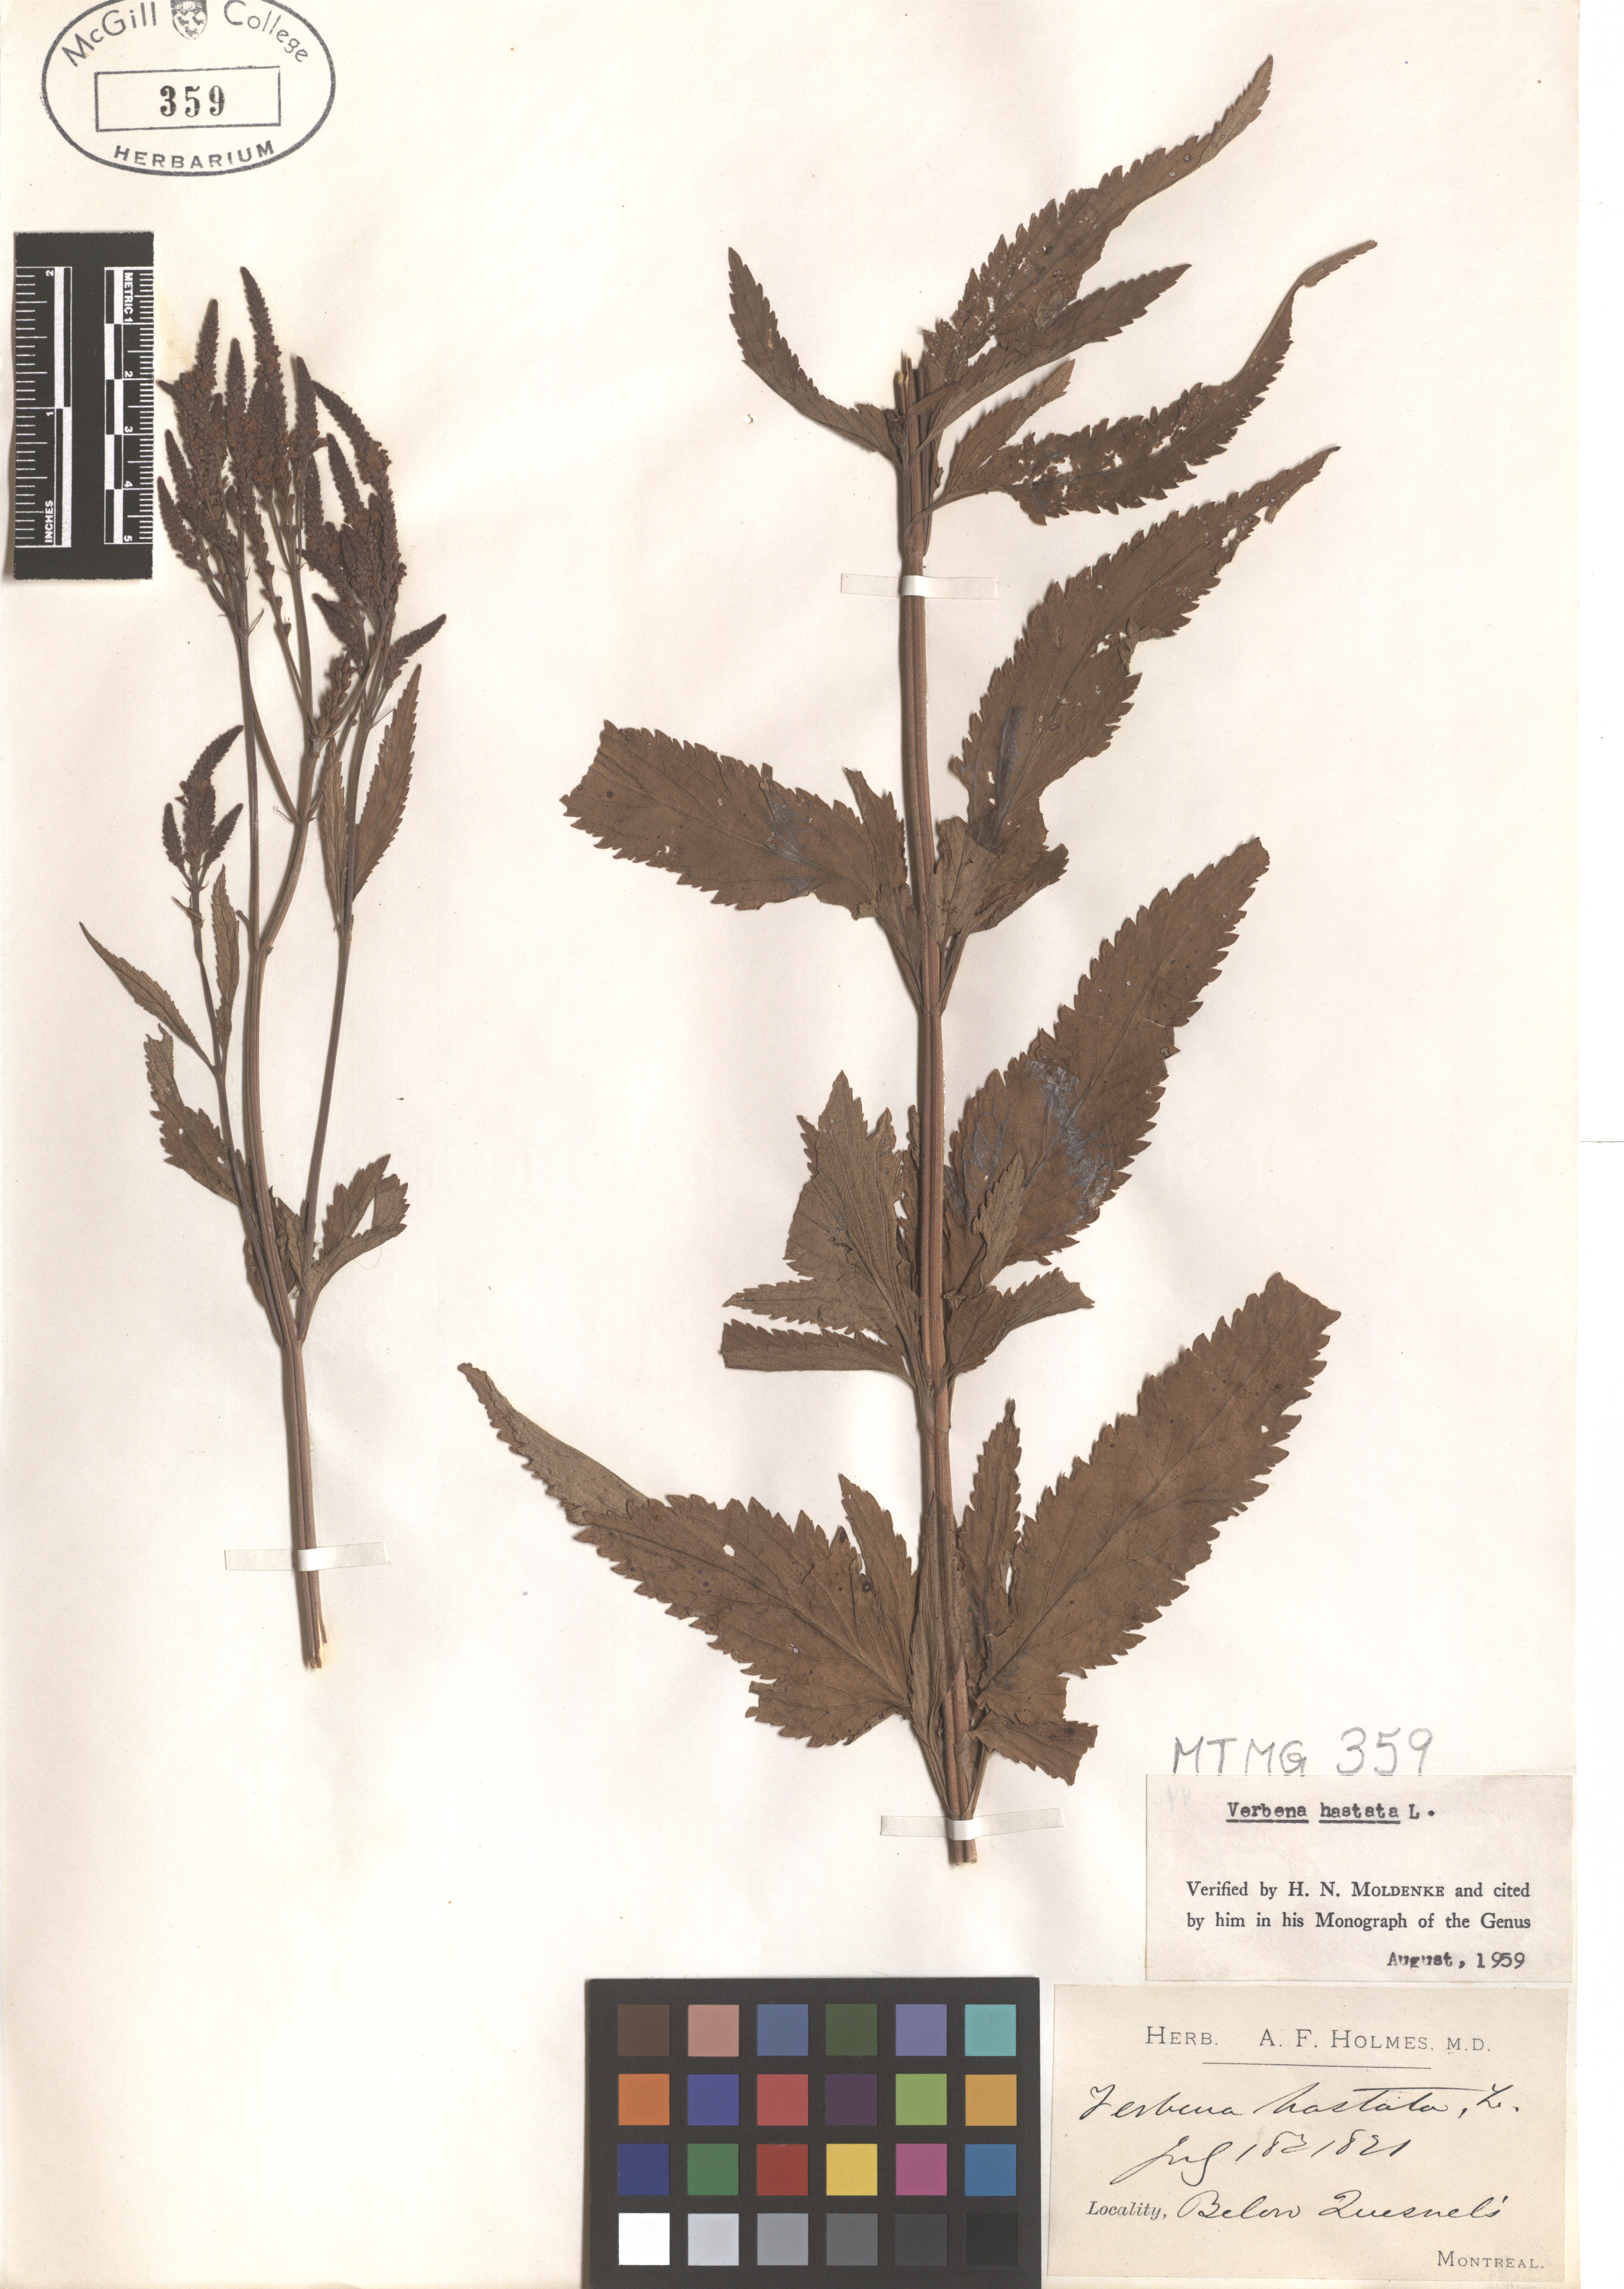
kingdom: Plantae
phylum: Tracheophyta
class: Magnoliopsida
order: Lamiales
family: Verbenaceae
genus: Verbena
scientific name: Verbena hastata
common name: American blue vervain
